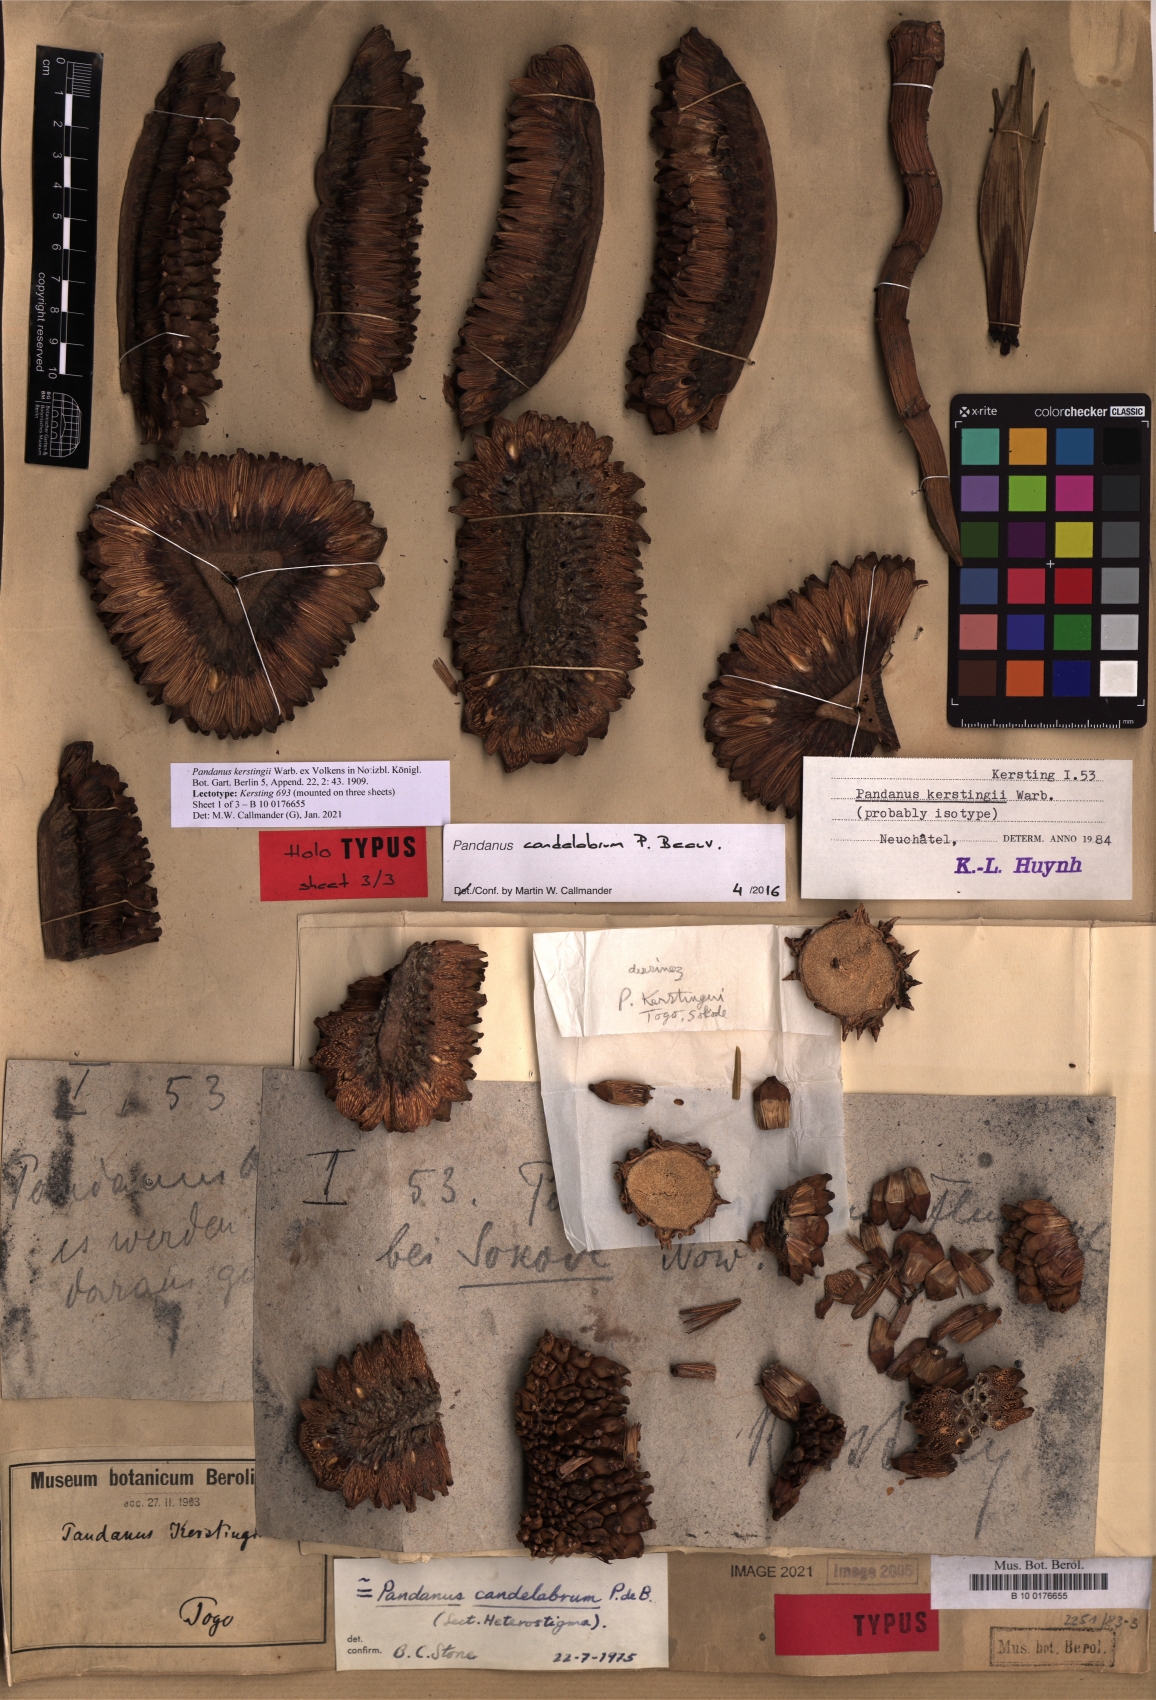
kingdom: Plantae
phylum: Tracheophyta
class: Liliopsida
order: Pandanales
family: Pandanaceae
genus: Pandanus
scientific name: Pandanus candelabrum
